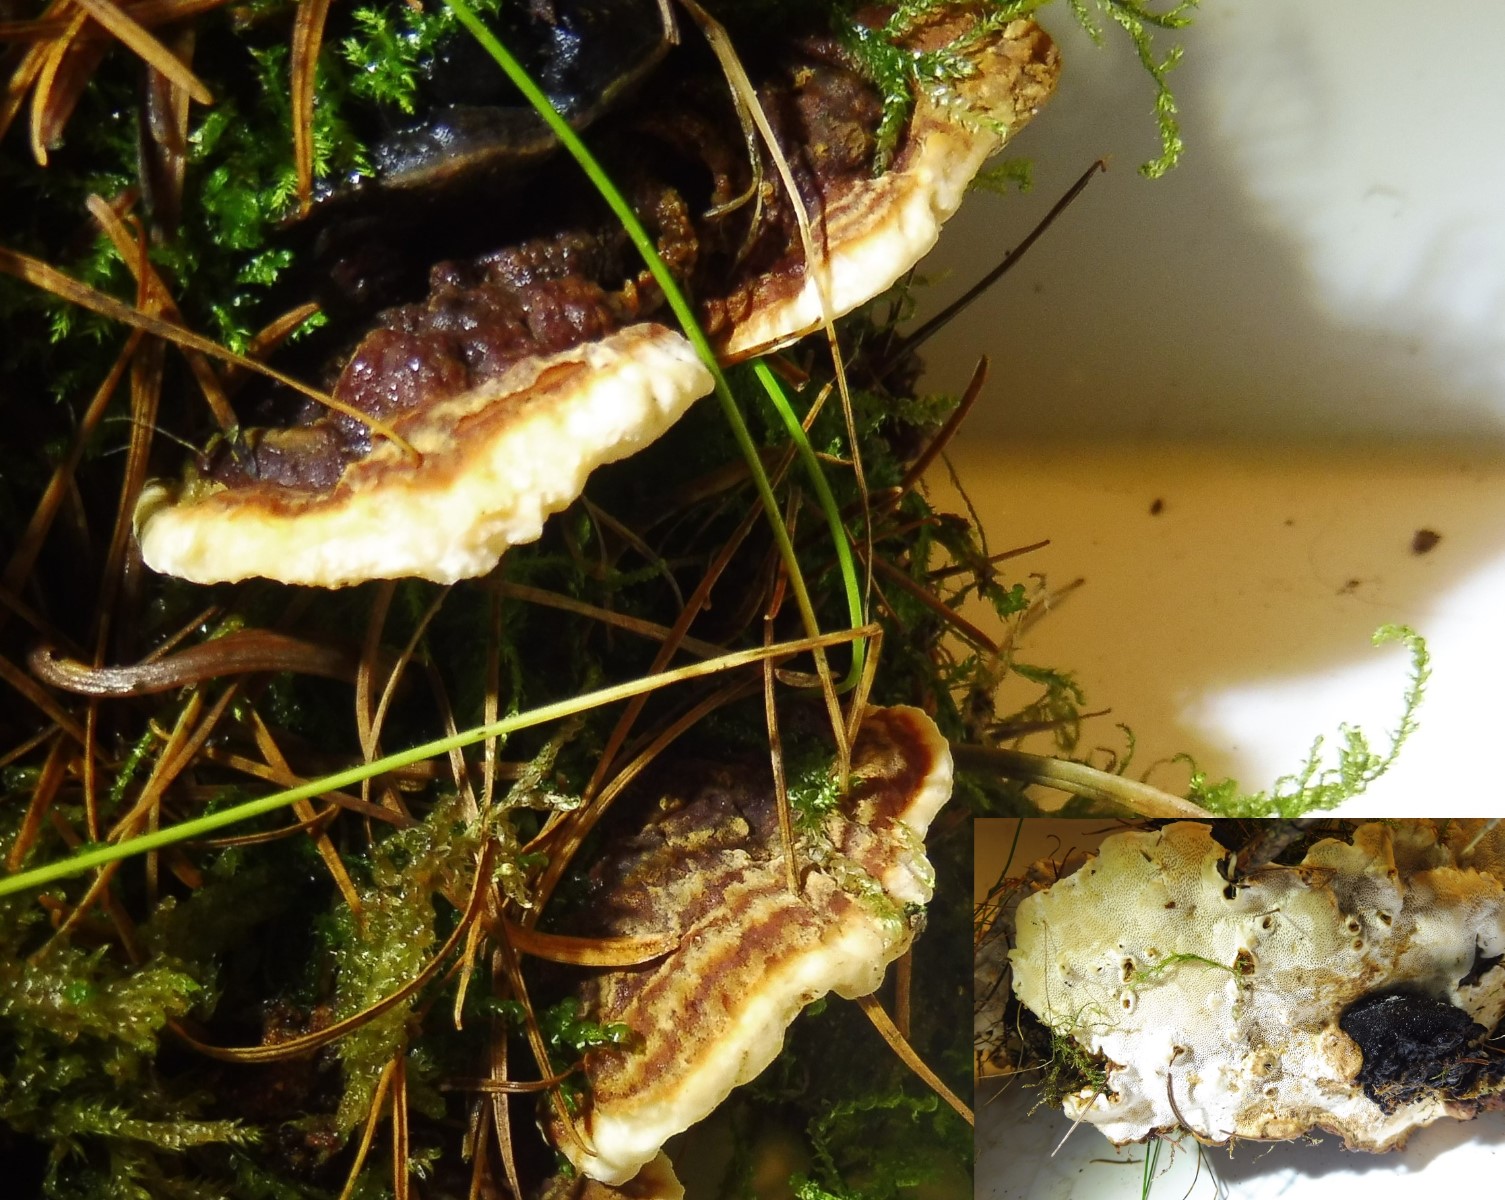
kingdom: Fungi
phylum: Basidiomycota
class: Agaricomycetes
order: Russulales
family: Bondarzewiaceae
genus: Heterobasidion
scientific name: Heterobasidion annosum
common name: almindelig rodfordærver
